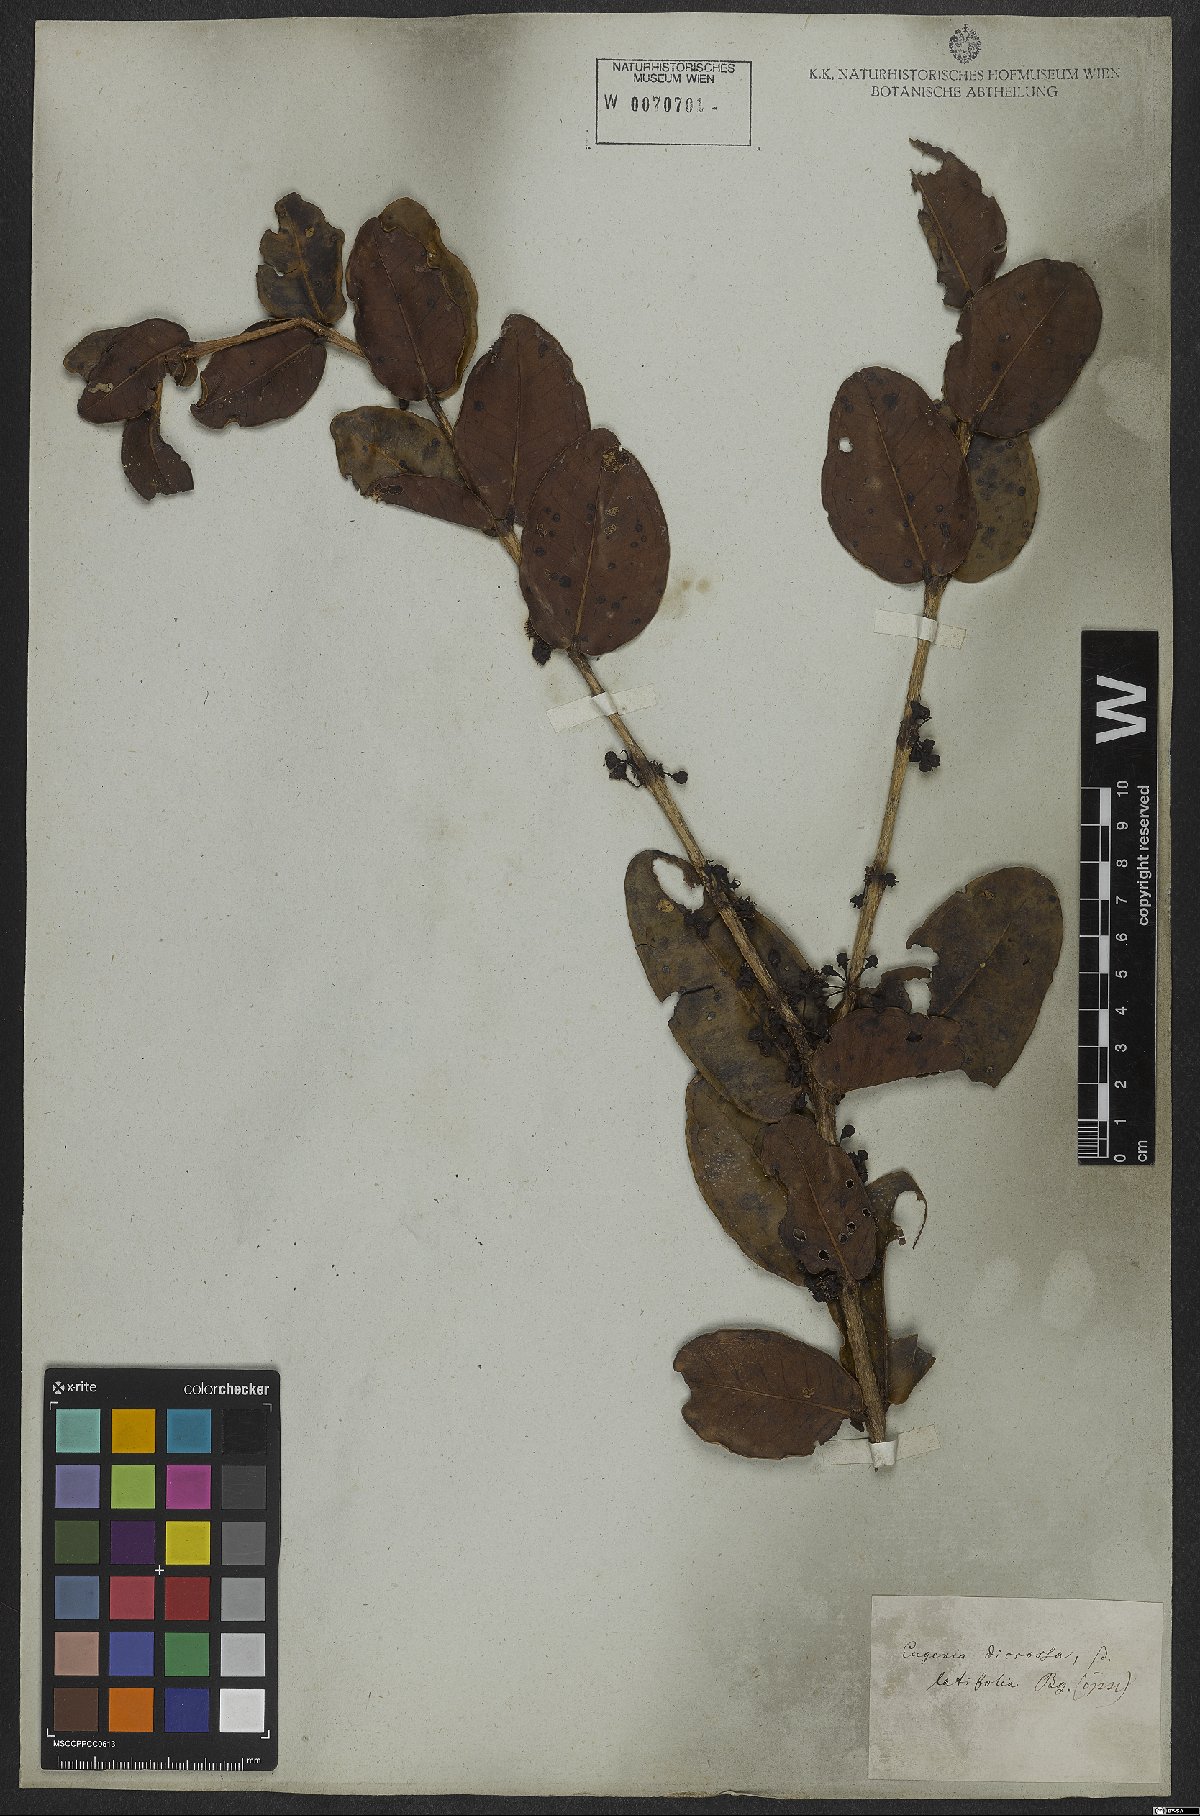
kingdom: Plantae
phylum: Tracheophyta
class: Magnoliopsida
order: Myrtales
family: Myrtaceae
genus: Eugenia
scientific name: Eugenia bimarginata
